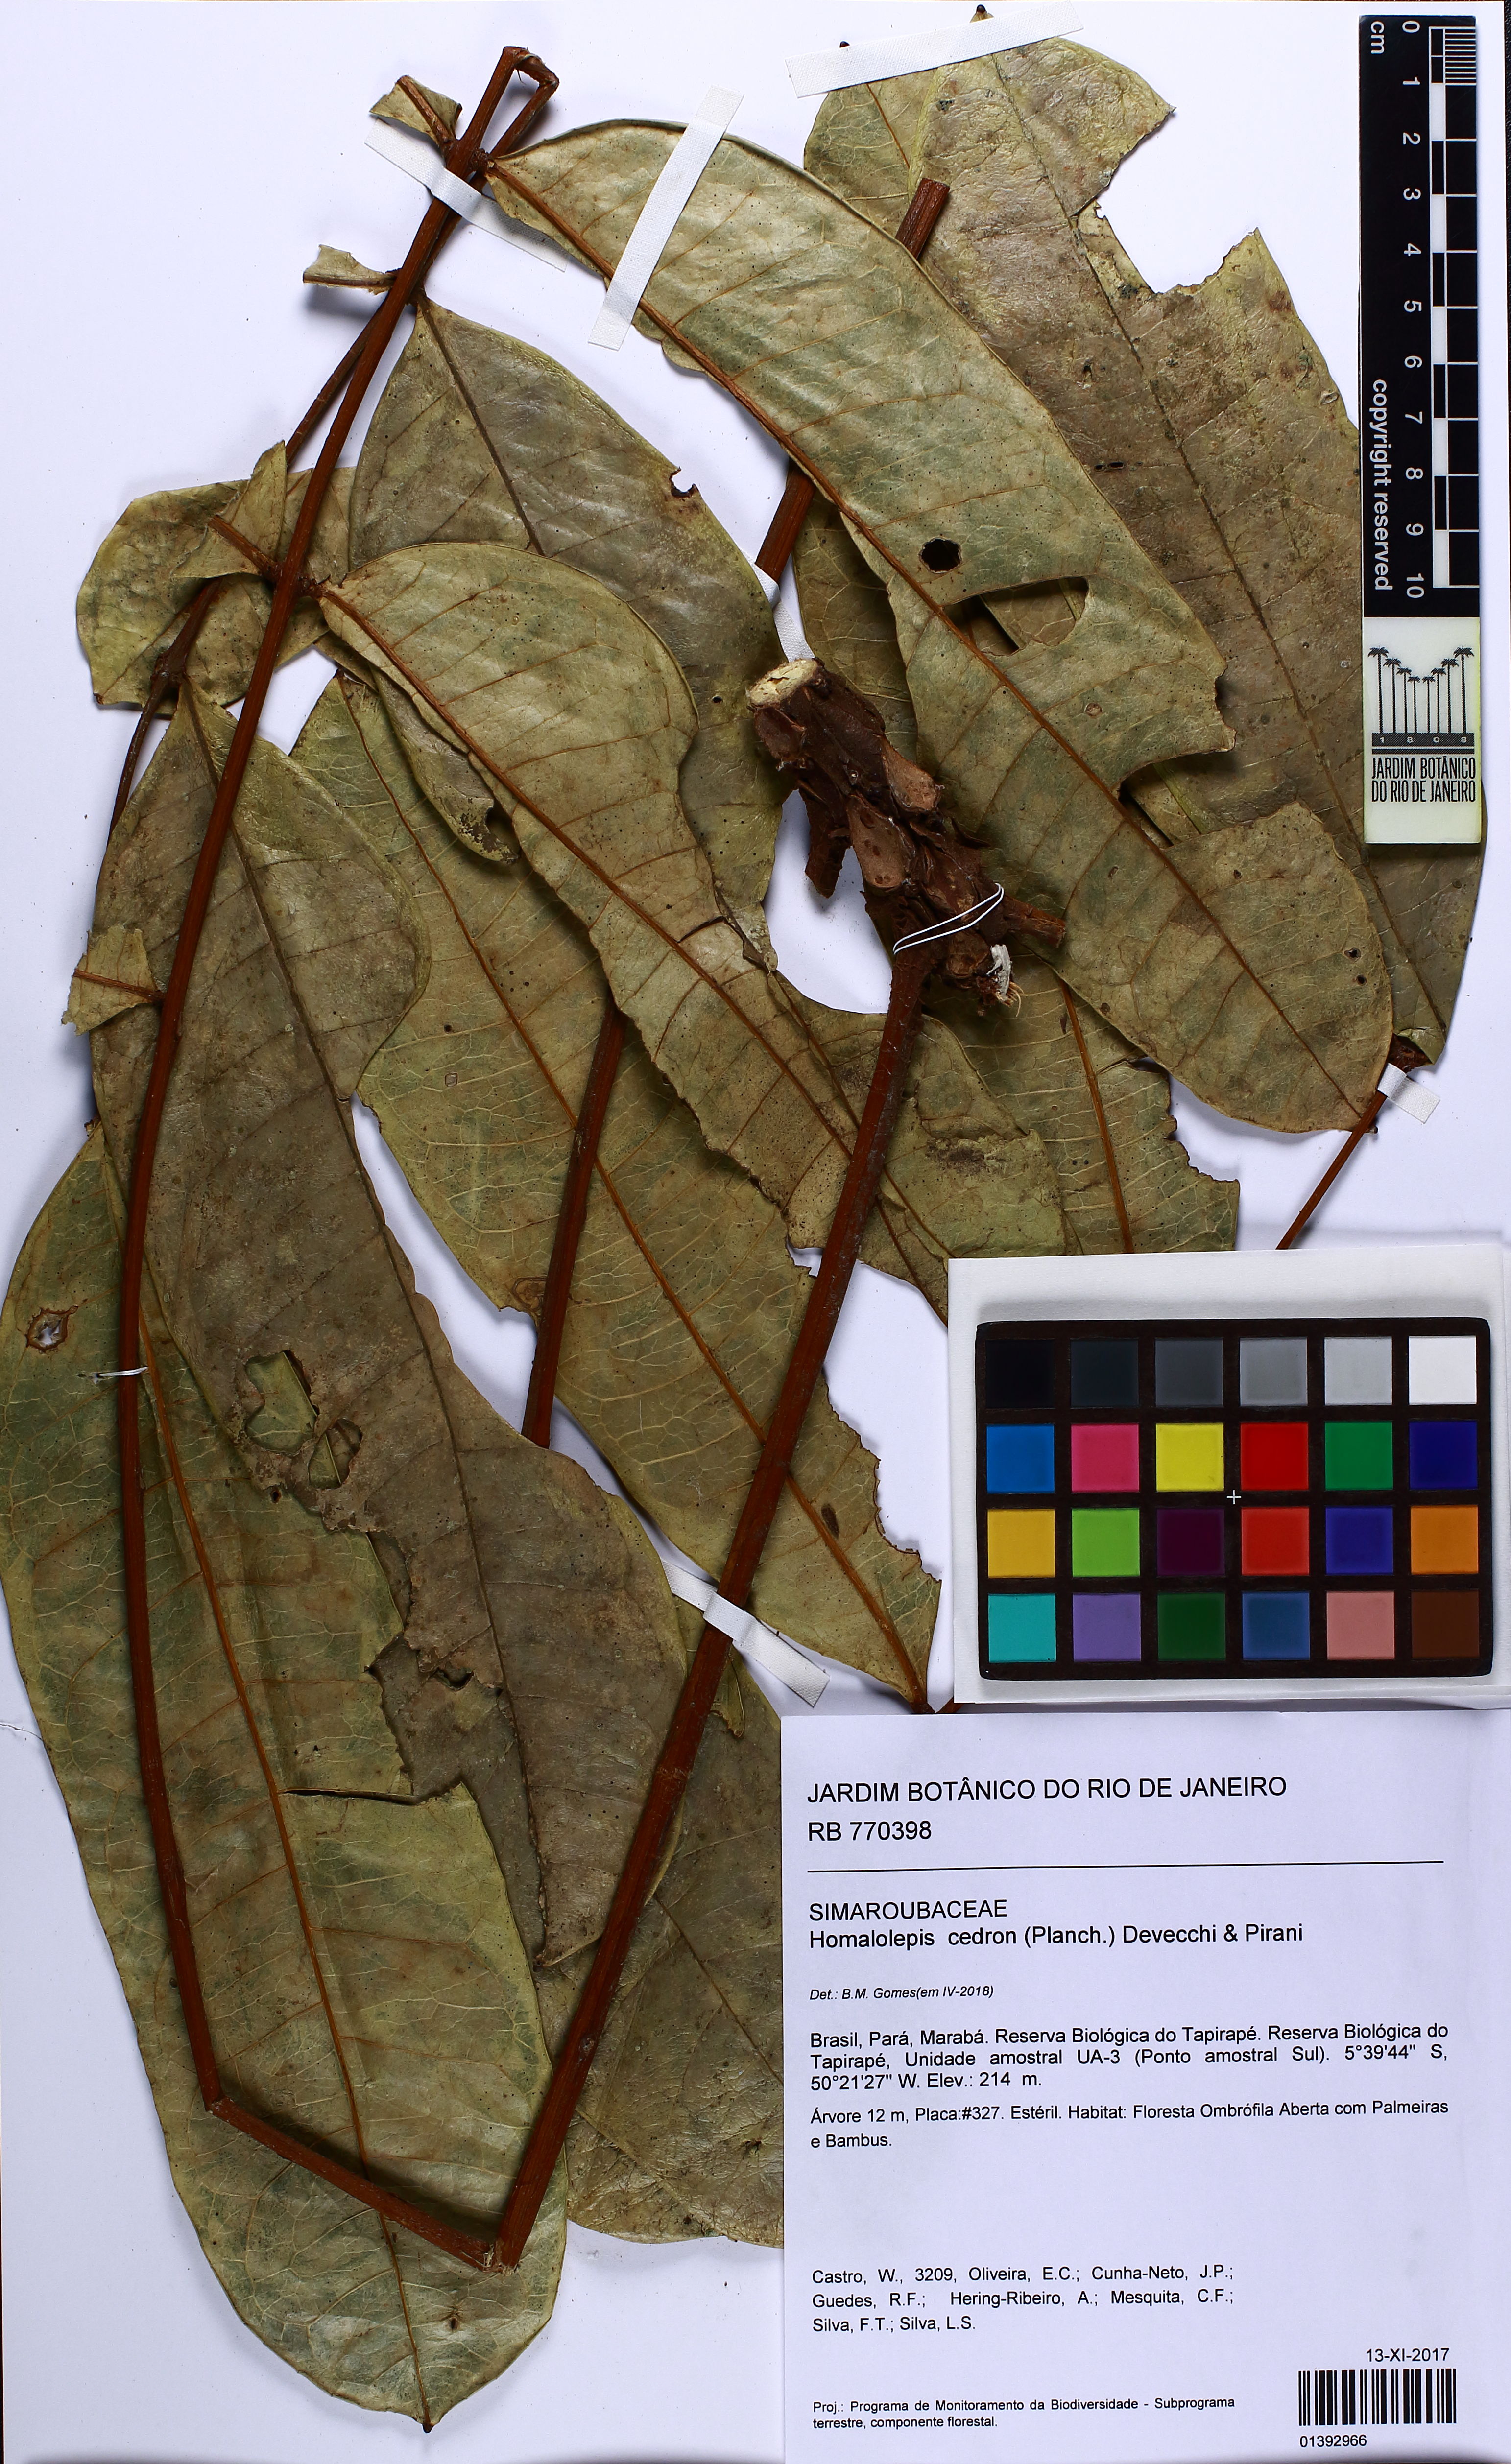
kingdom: Plantae
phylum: Tracheophyta
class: Magnoliopsida
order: Sapindales
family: Simaroubaceae
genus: Homalolepis
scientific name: Homalolepis cedron
